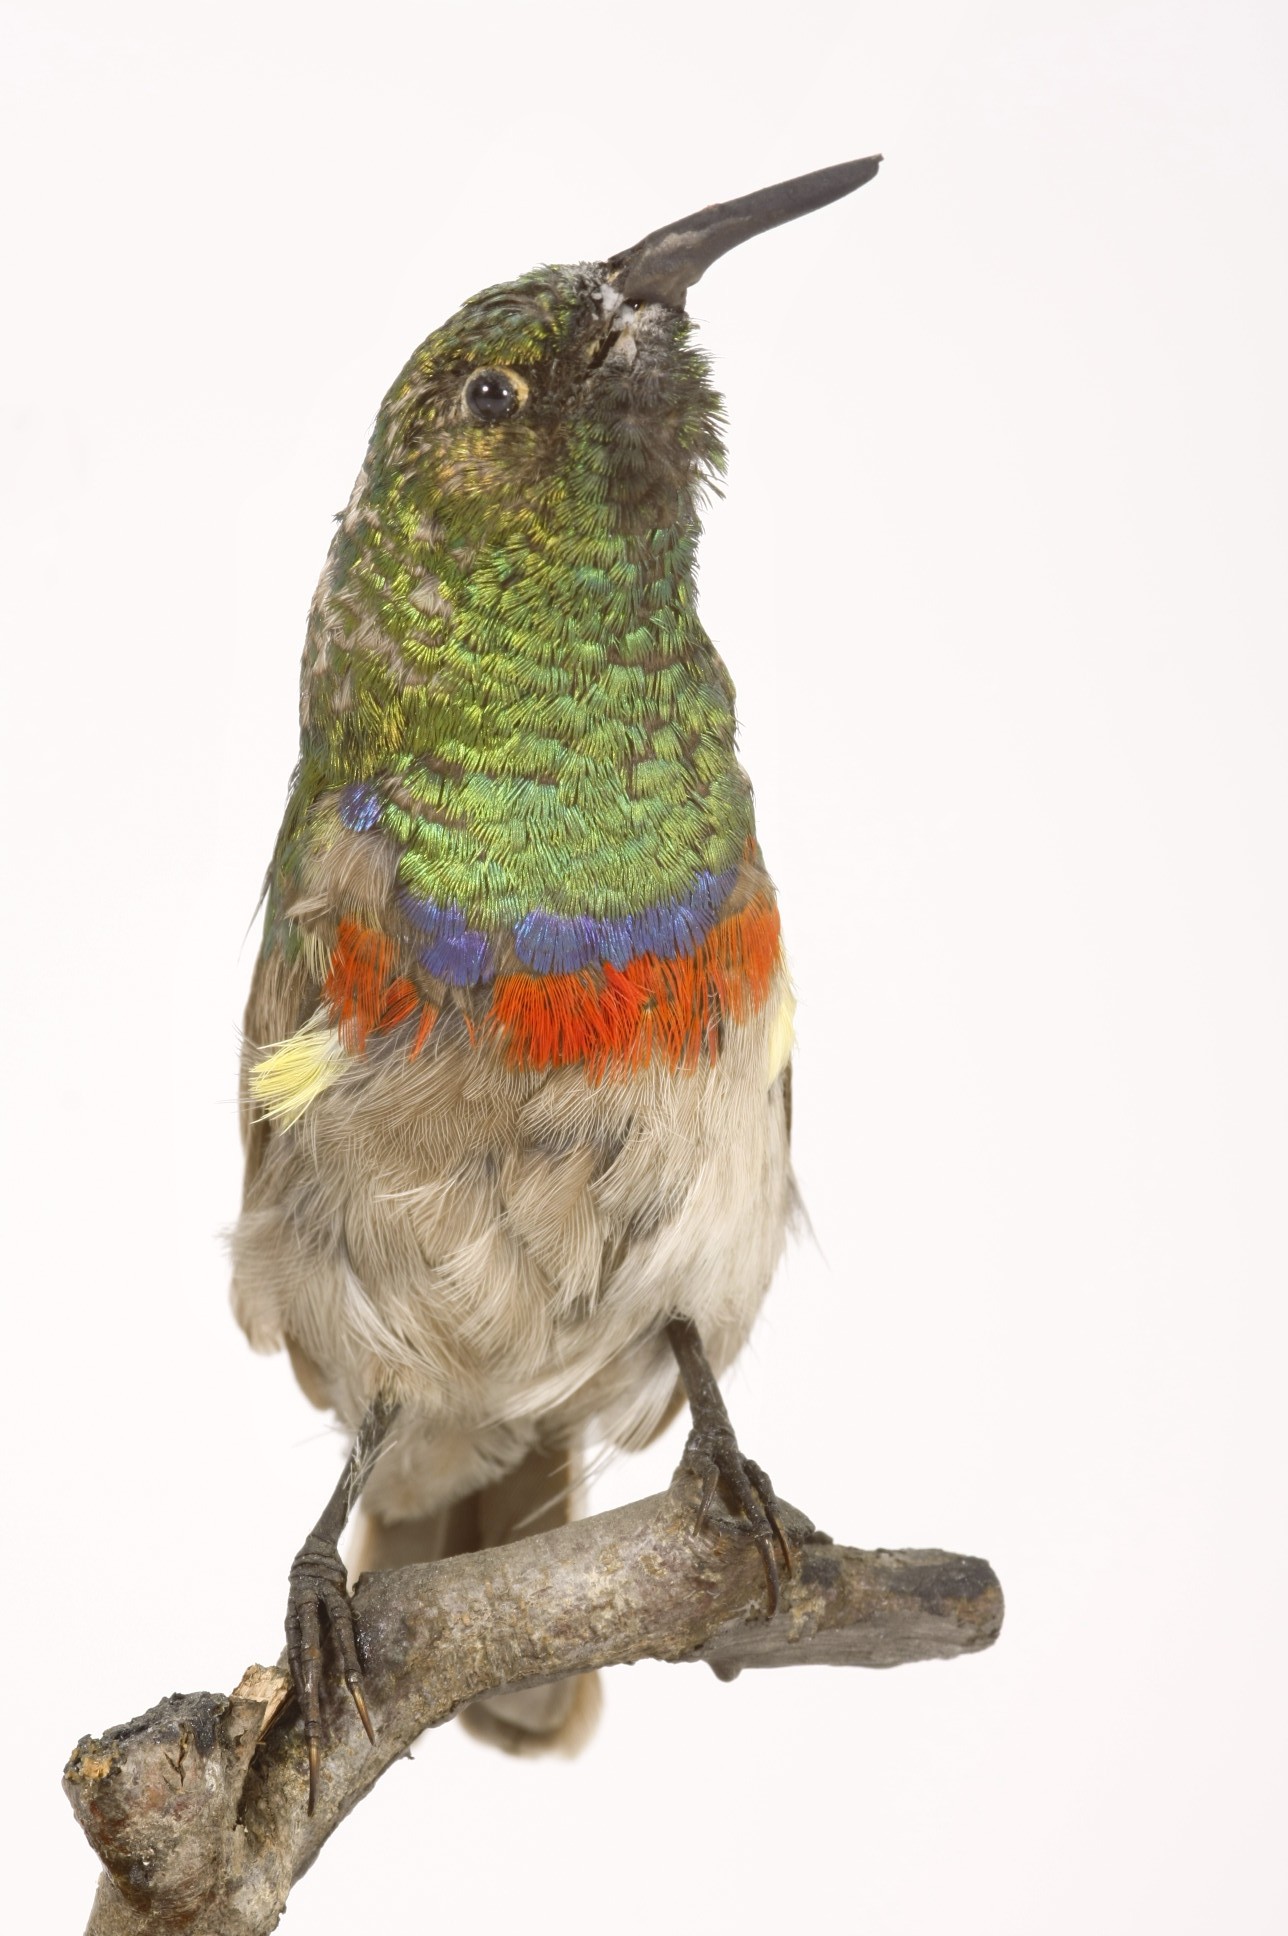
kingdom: Animalia
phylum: Chordata
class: Aves
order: Passeriformes
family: Nectariniidae
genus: Cinnyris
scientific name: Cinnyris mediocris
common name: Eastern double-collared sunbird
